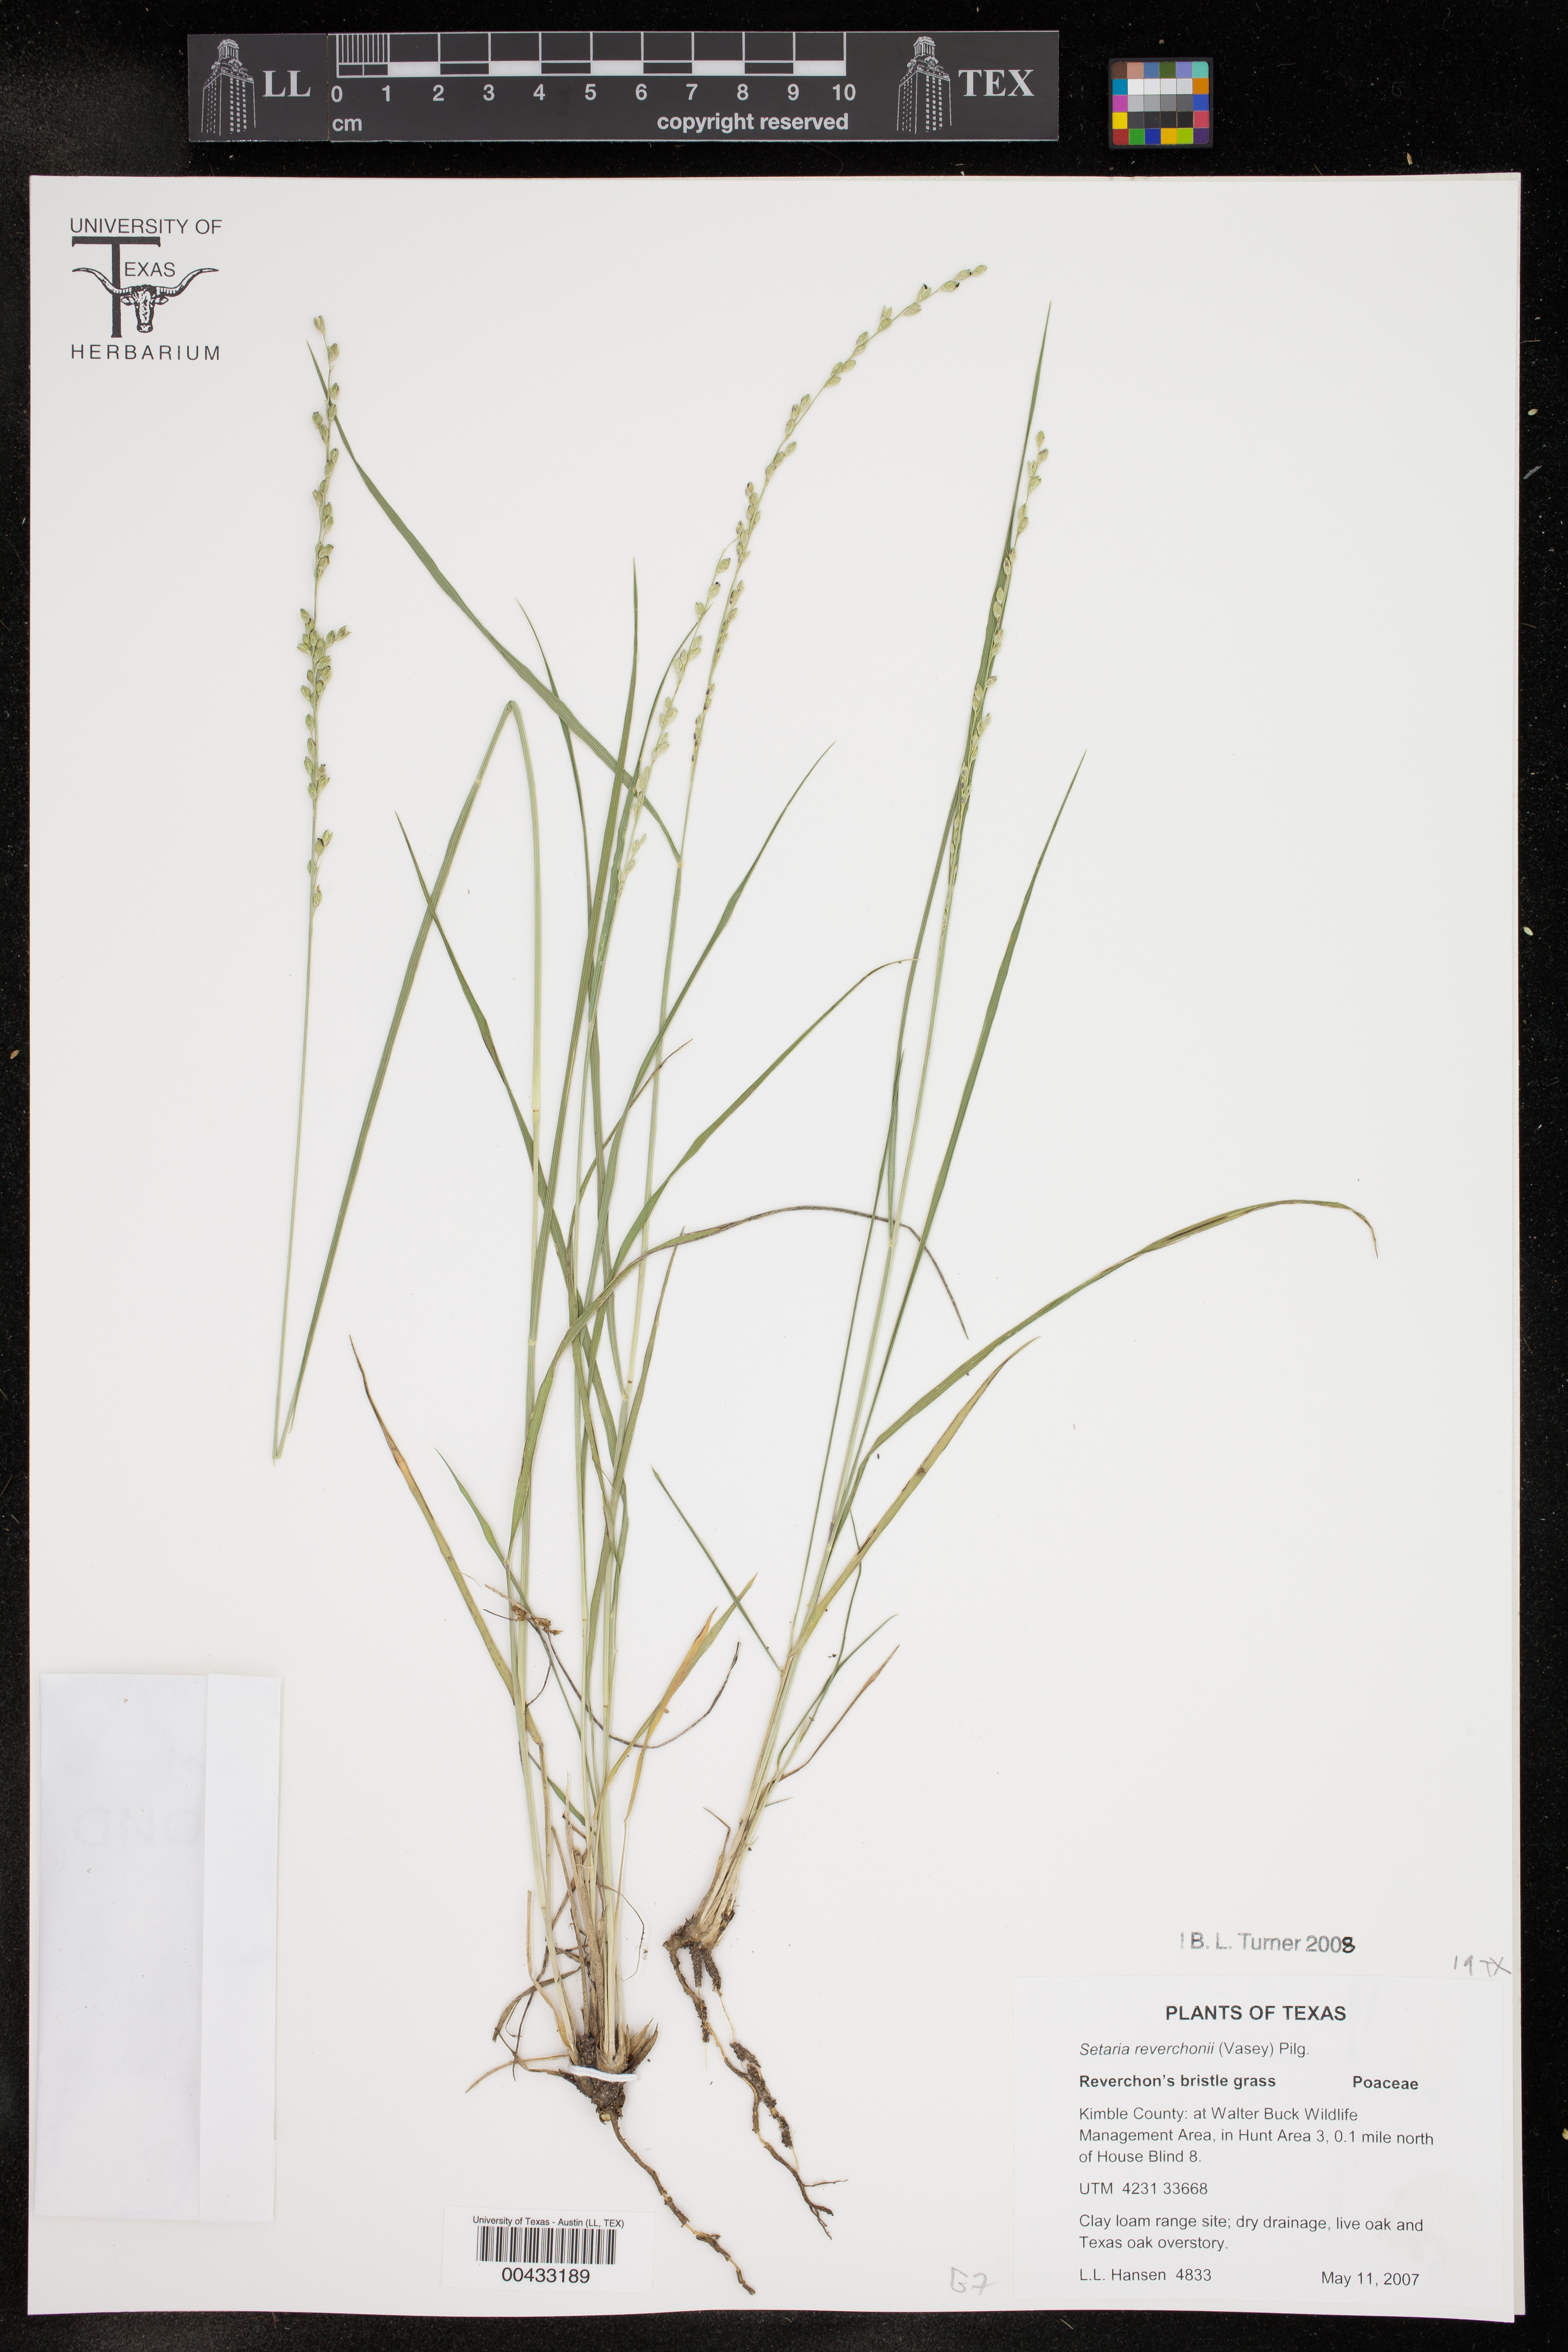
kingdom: Plantae
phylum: Tracheophyta
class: Liliopsida
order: Poales
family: Poaceae
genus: Setaria
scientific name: Setaria reverchonii
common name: Reverchon's bristle grass
